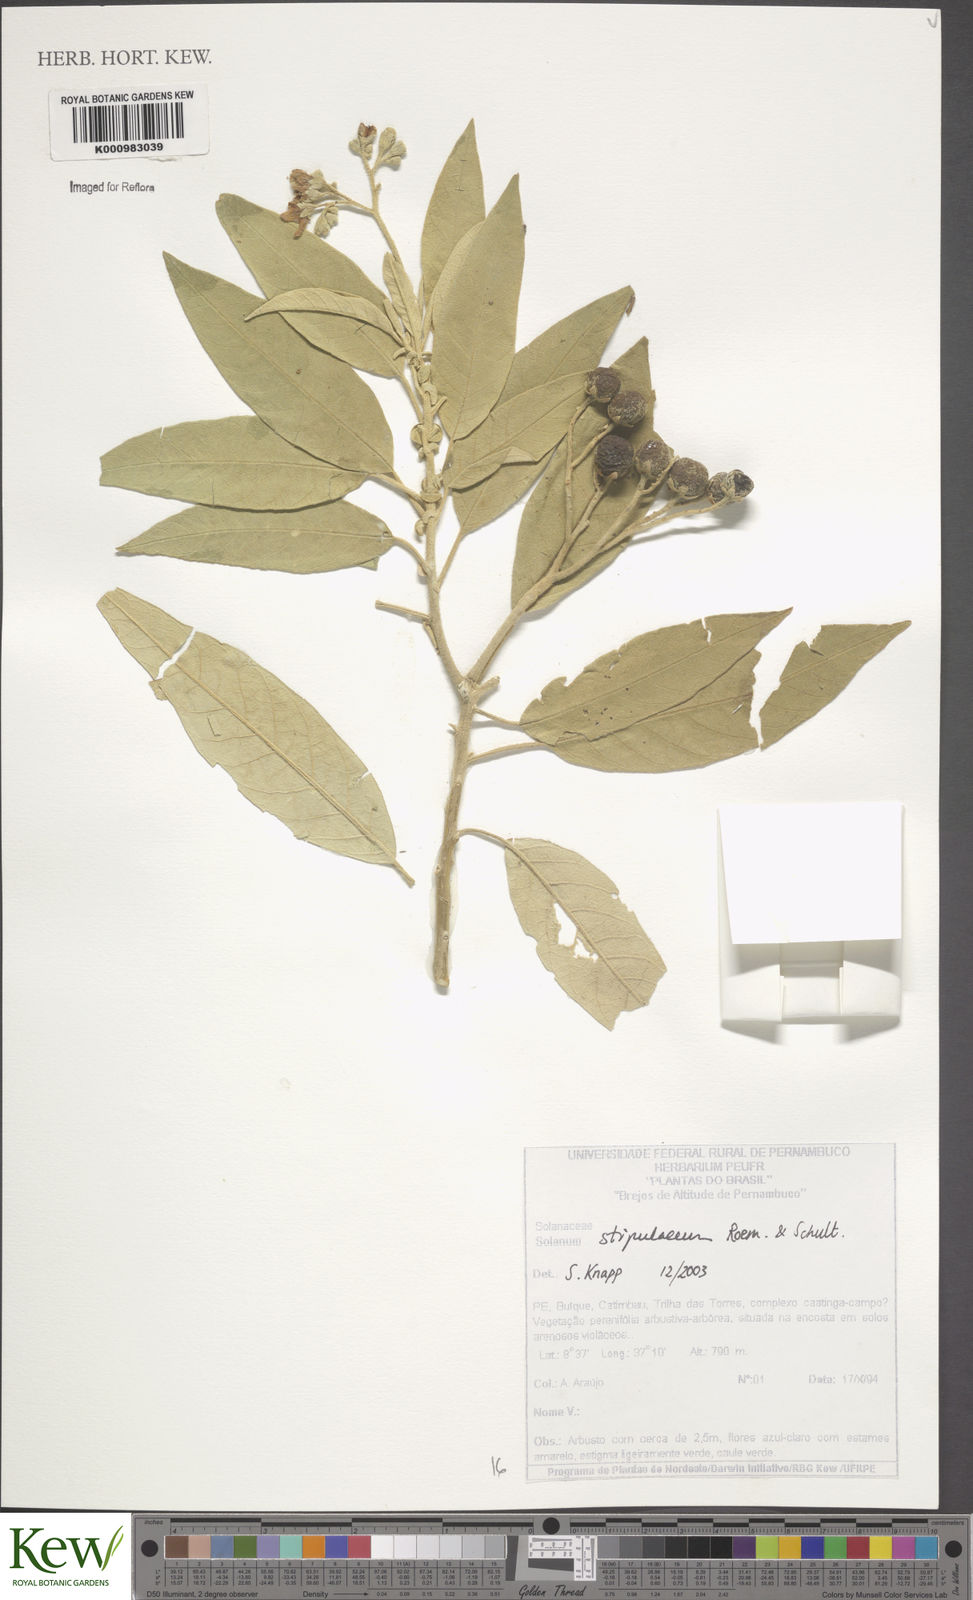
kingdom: Plantae
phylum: Tracheophyta
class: Magnoliopsida
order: Solanales
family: Solanaceae
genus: Solanum
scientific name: Solanum stipulaceum
